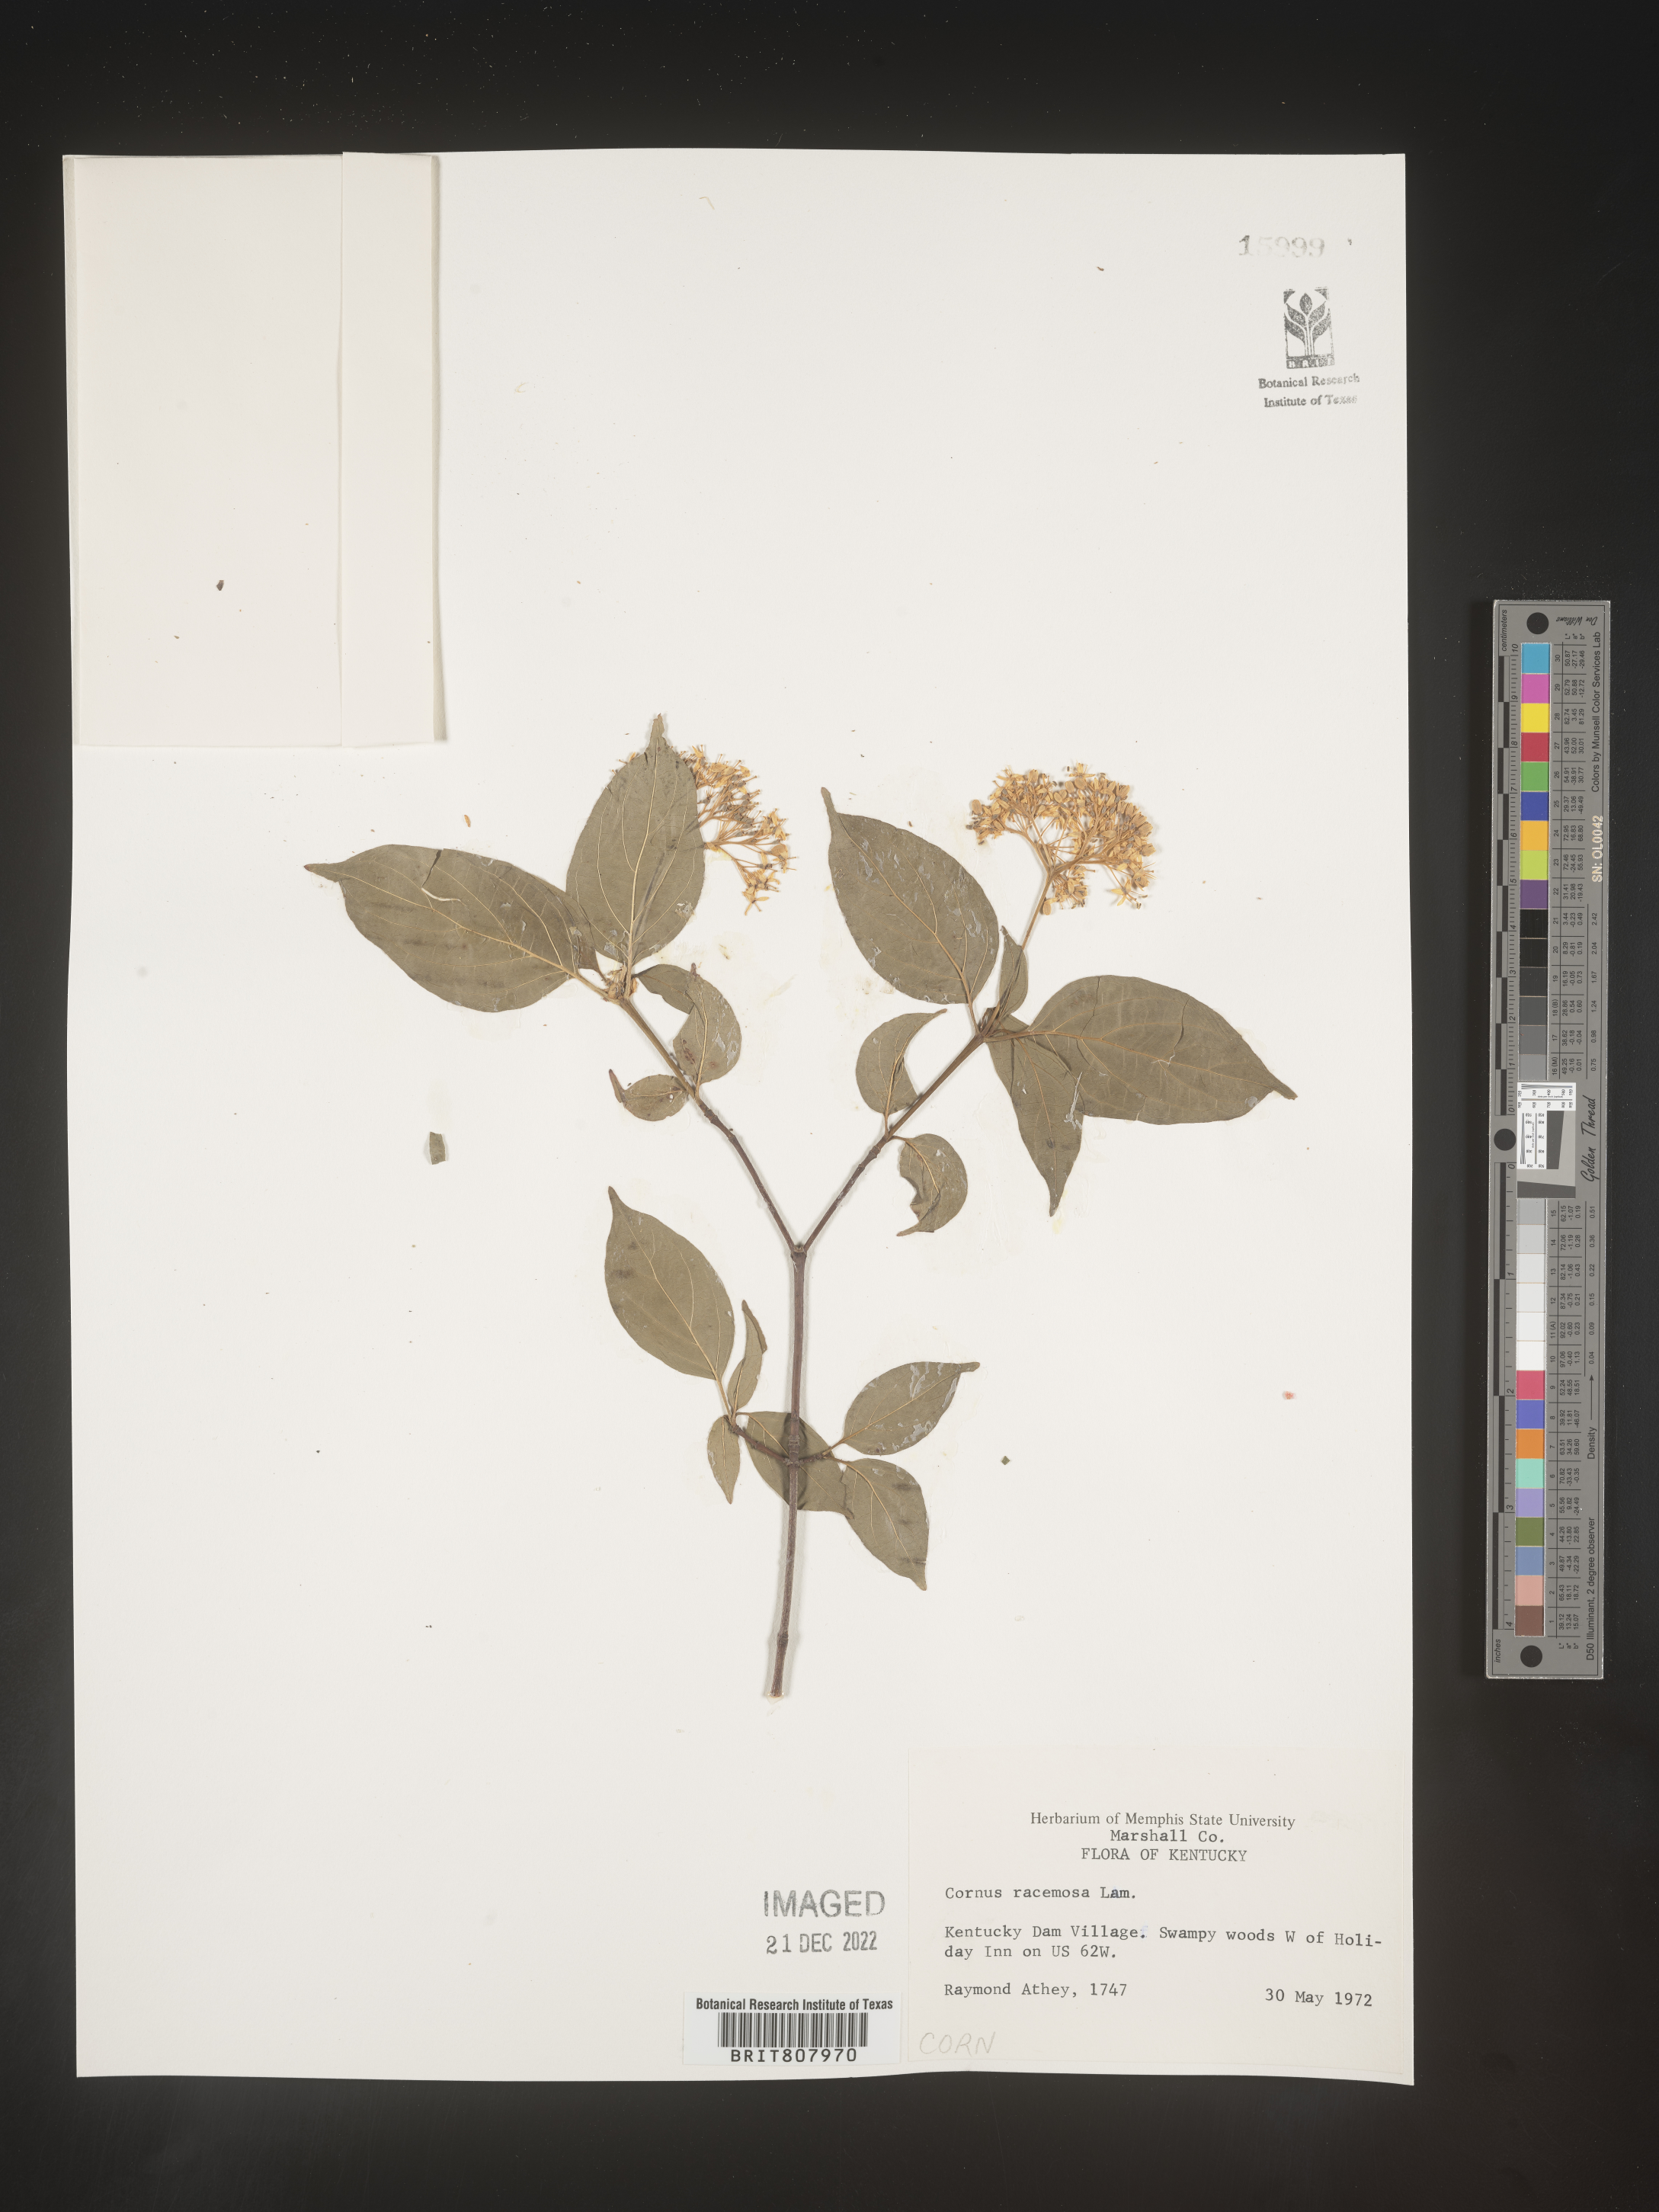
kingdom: Plantae
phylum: Tracheophyta
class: Magnoliopsida
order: Cornales
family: Cornaceae
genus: Cornus
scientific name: Cornus racemosa
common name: Panicled dogwood
